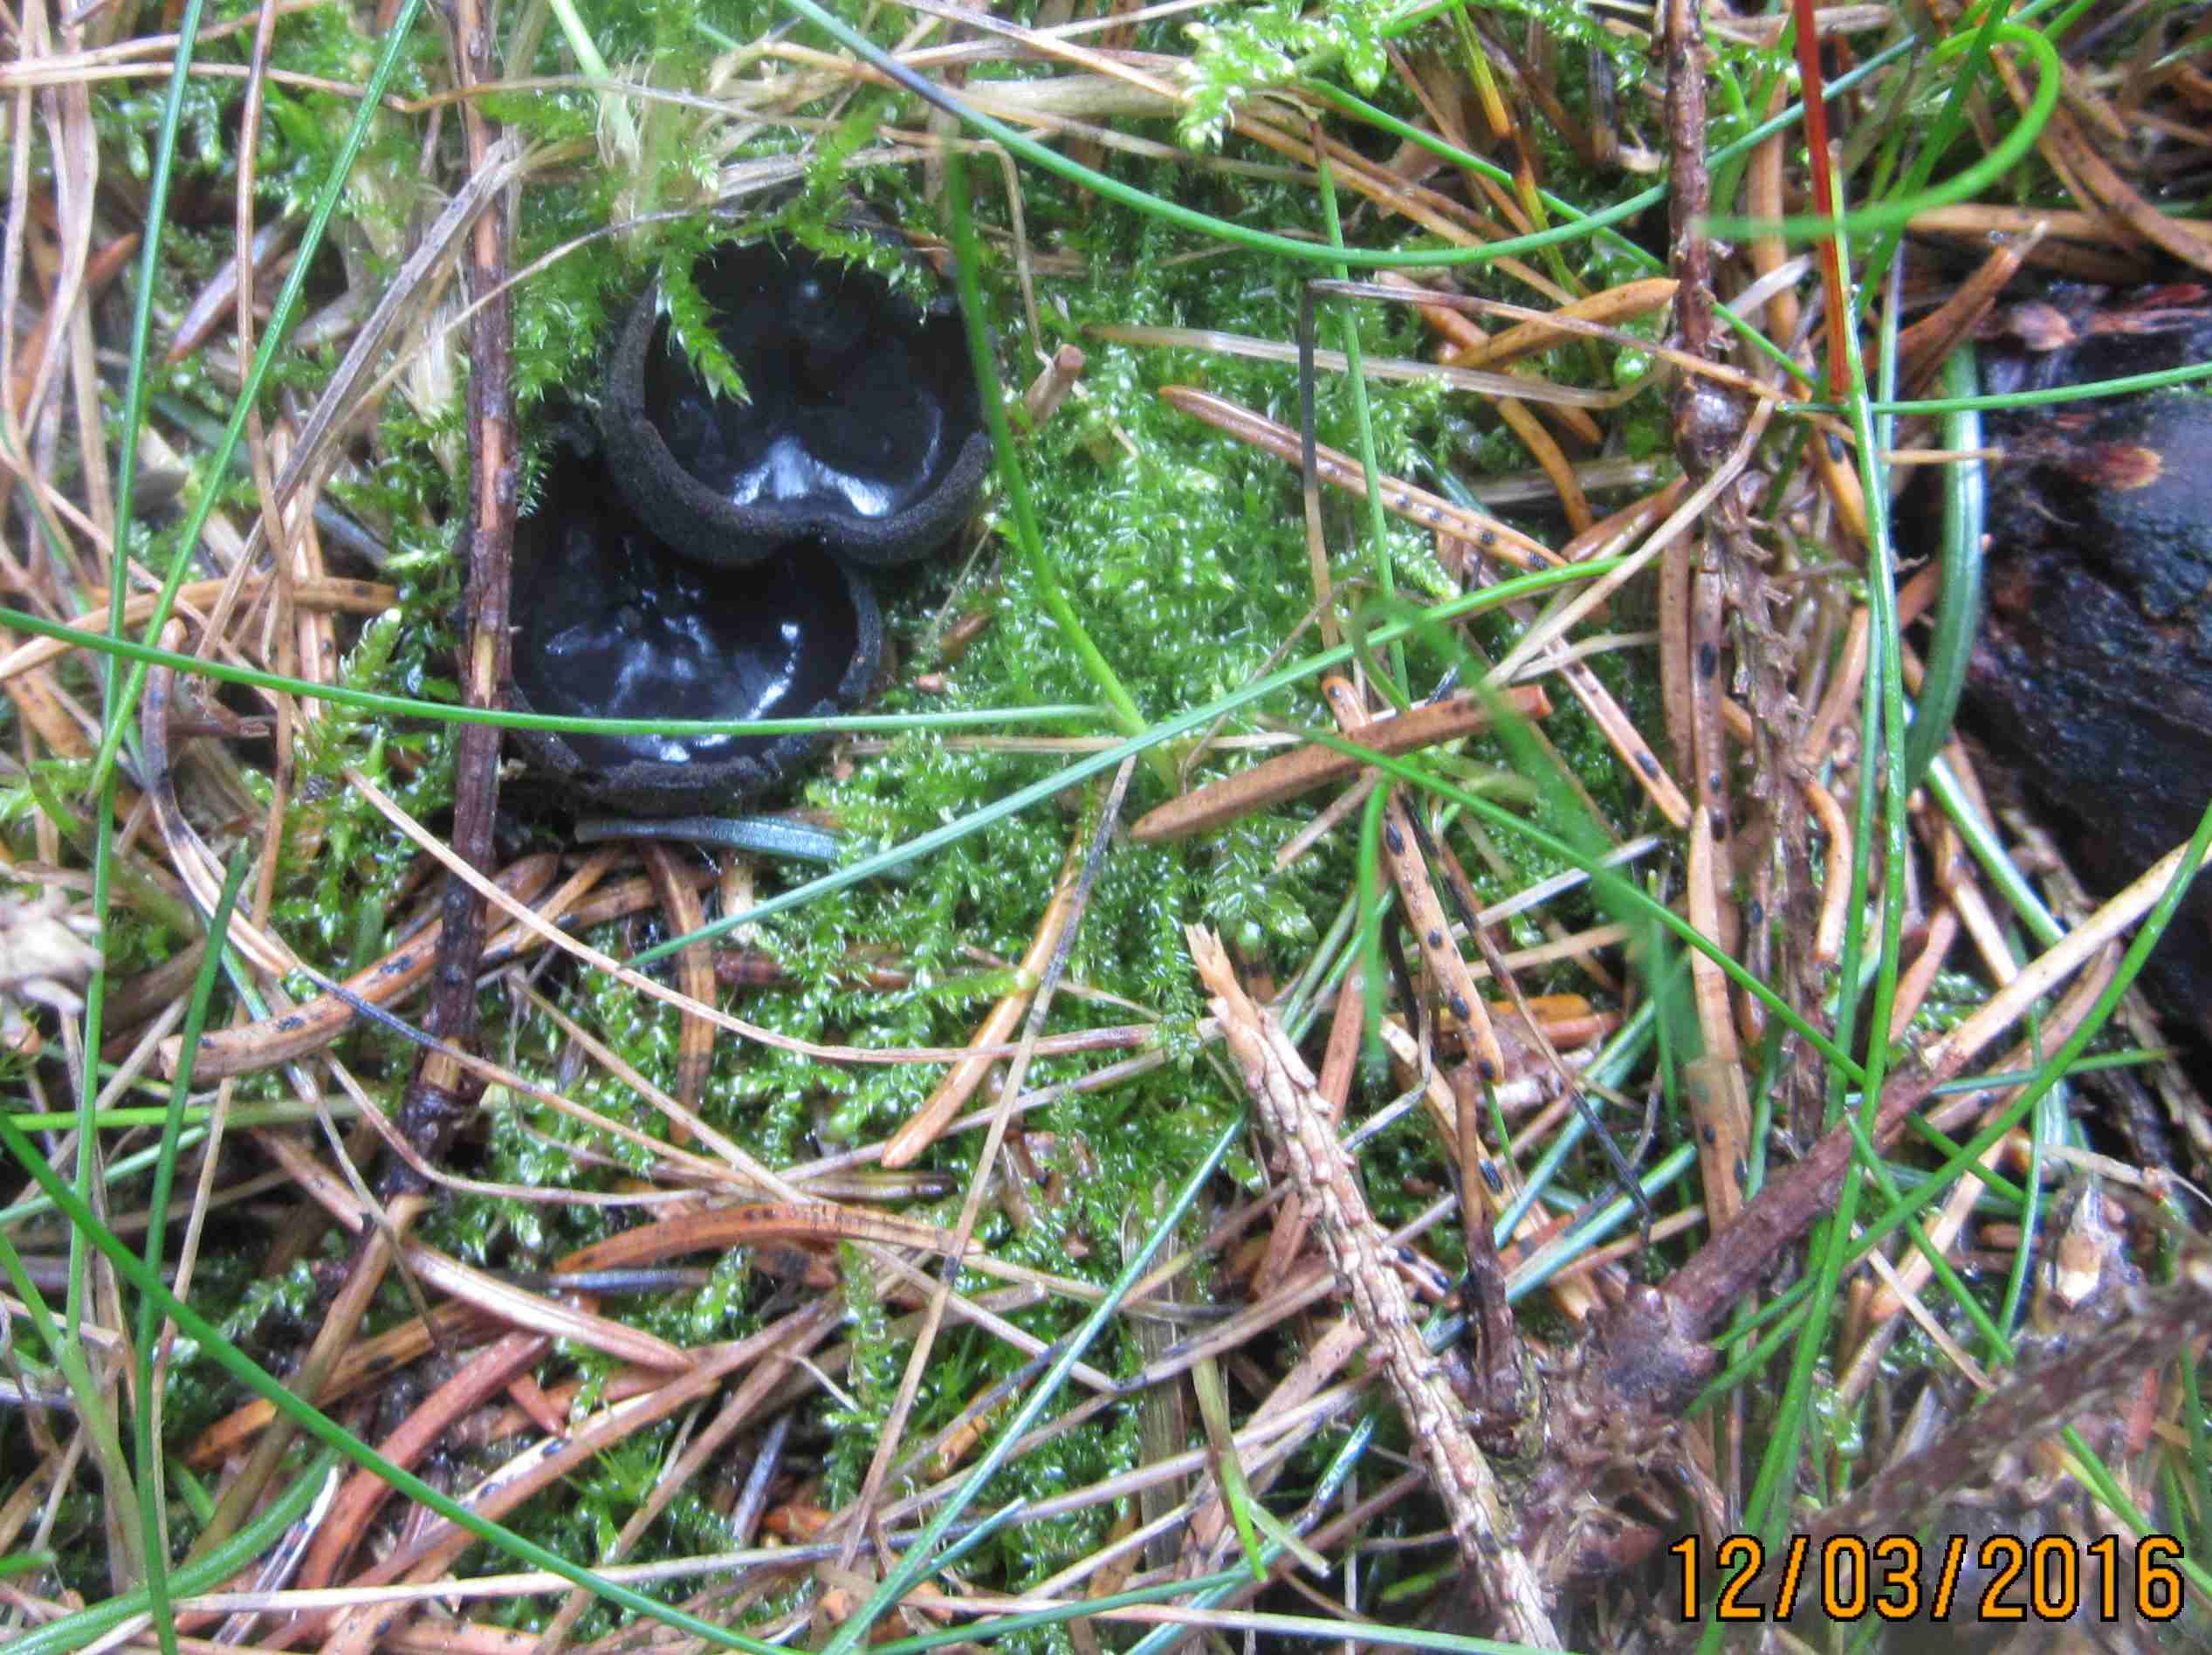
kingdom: Fungi
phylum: Ascomycota
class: Pezizomycetes
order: Pezizales
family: Sarcosomataceae
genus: Pseudoplectania
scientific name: Pseudoplectania nigrella
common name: almindelig sortbæger
